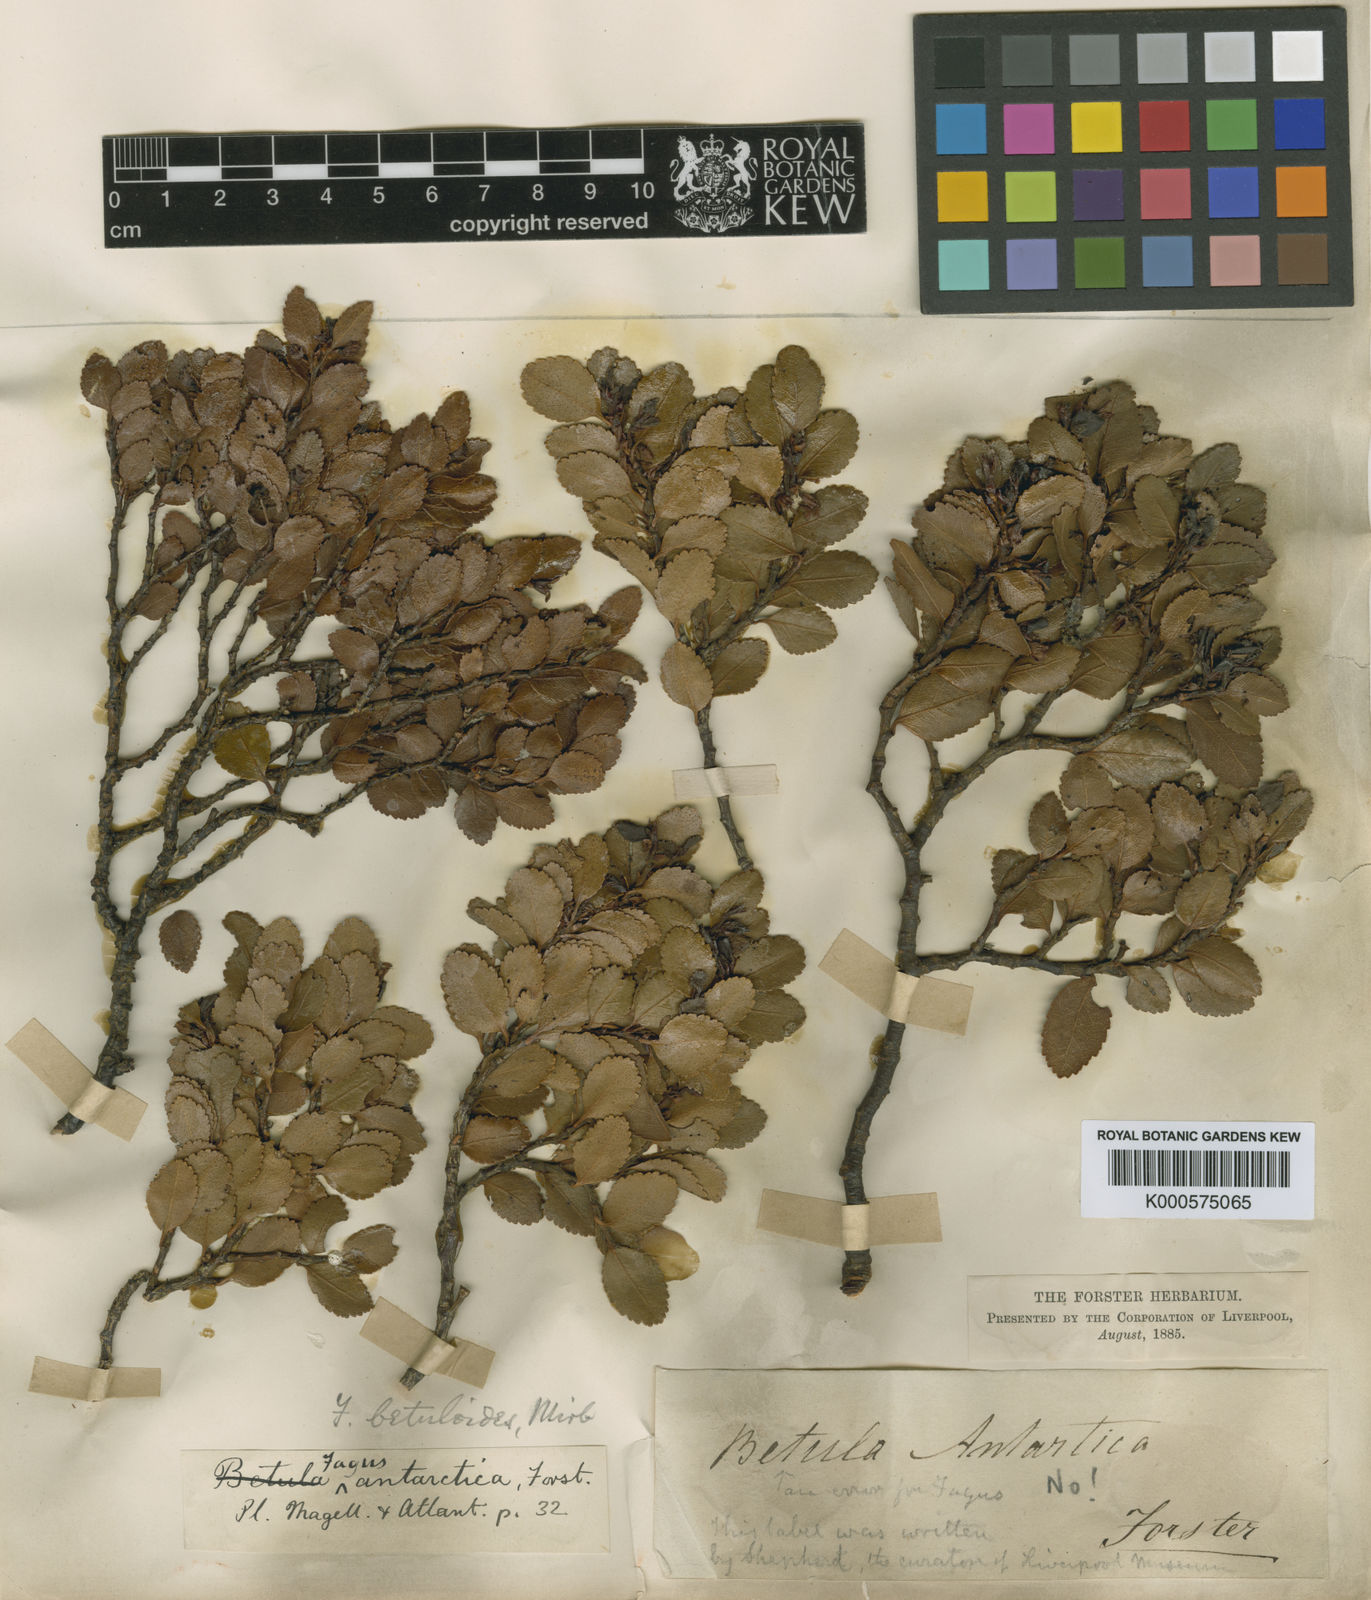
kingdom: Plantae
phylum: Tracheophyta
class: Magnoliopsida
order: Fagales
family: Nothofagaceae
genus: Nothofagus
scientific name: Nothofagus betuloides
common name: Magellan's beech
